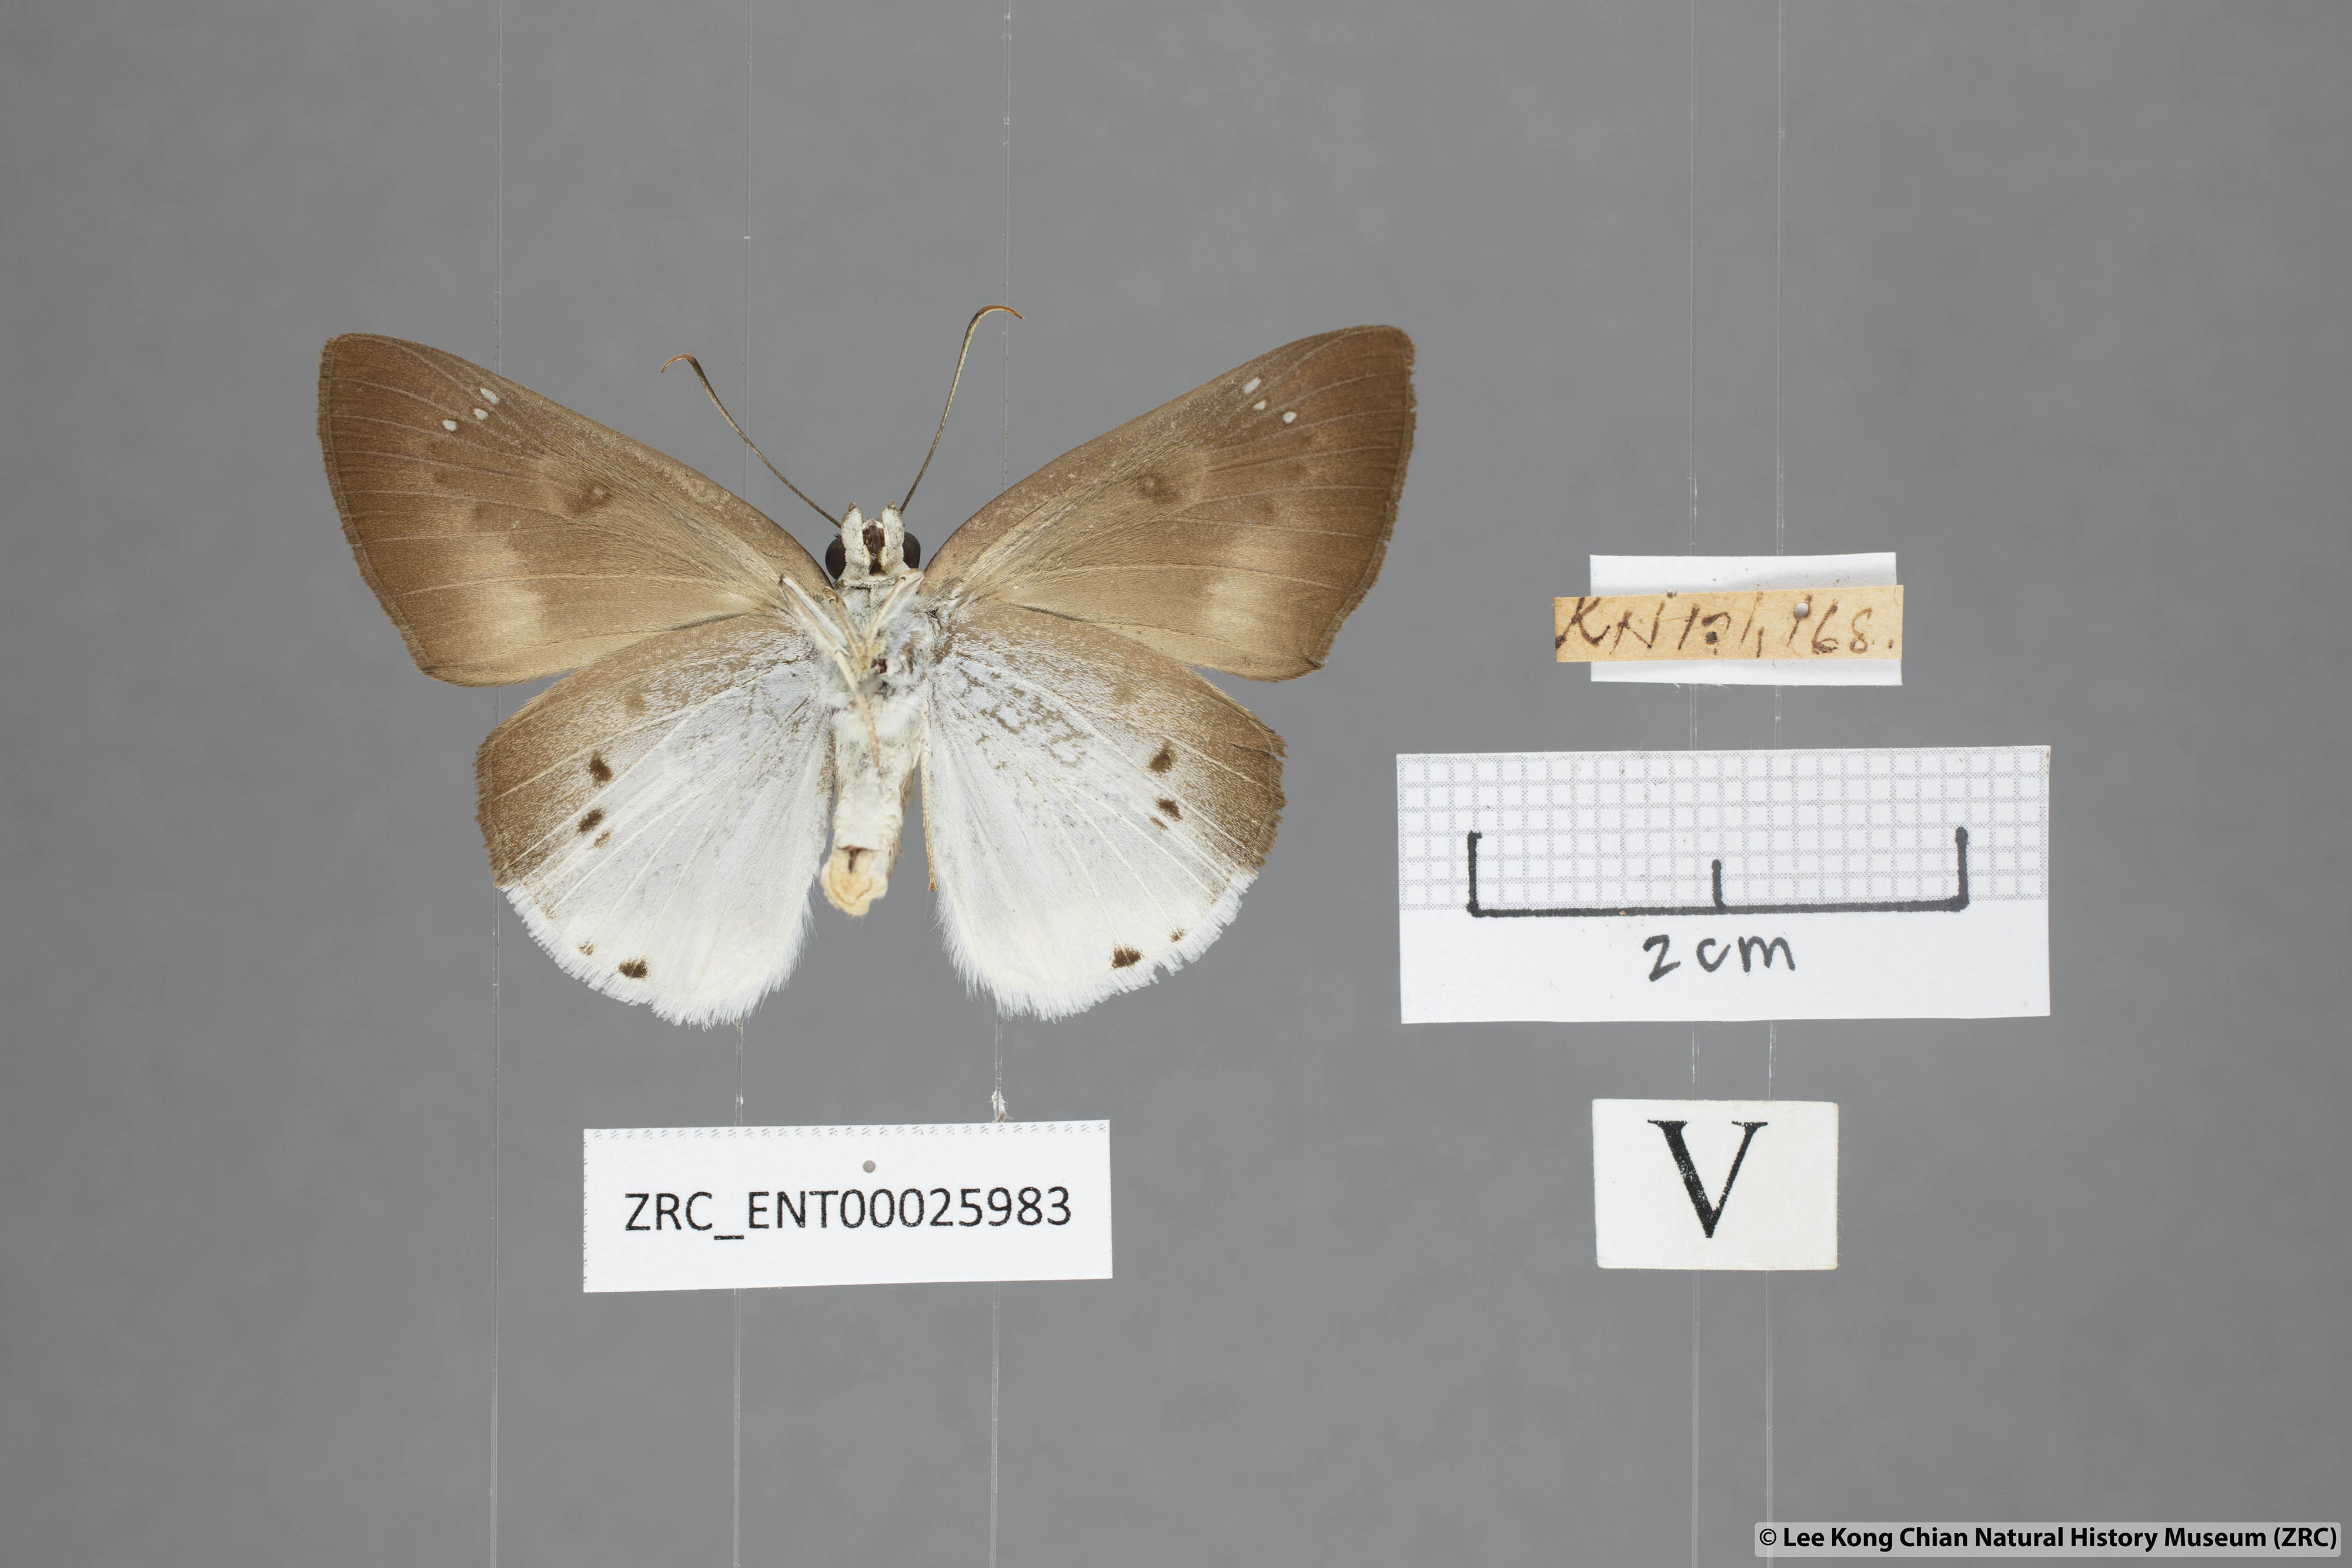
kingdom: Animalia
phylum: Arthropoda
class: Insecta
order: Lepidoptera
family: Hesperiidae
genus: Tagiades
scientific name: Tagiades gana
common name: Suffused snow flat
